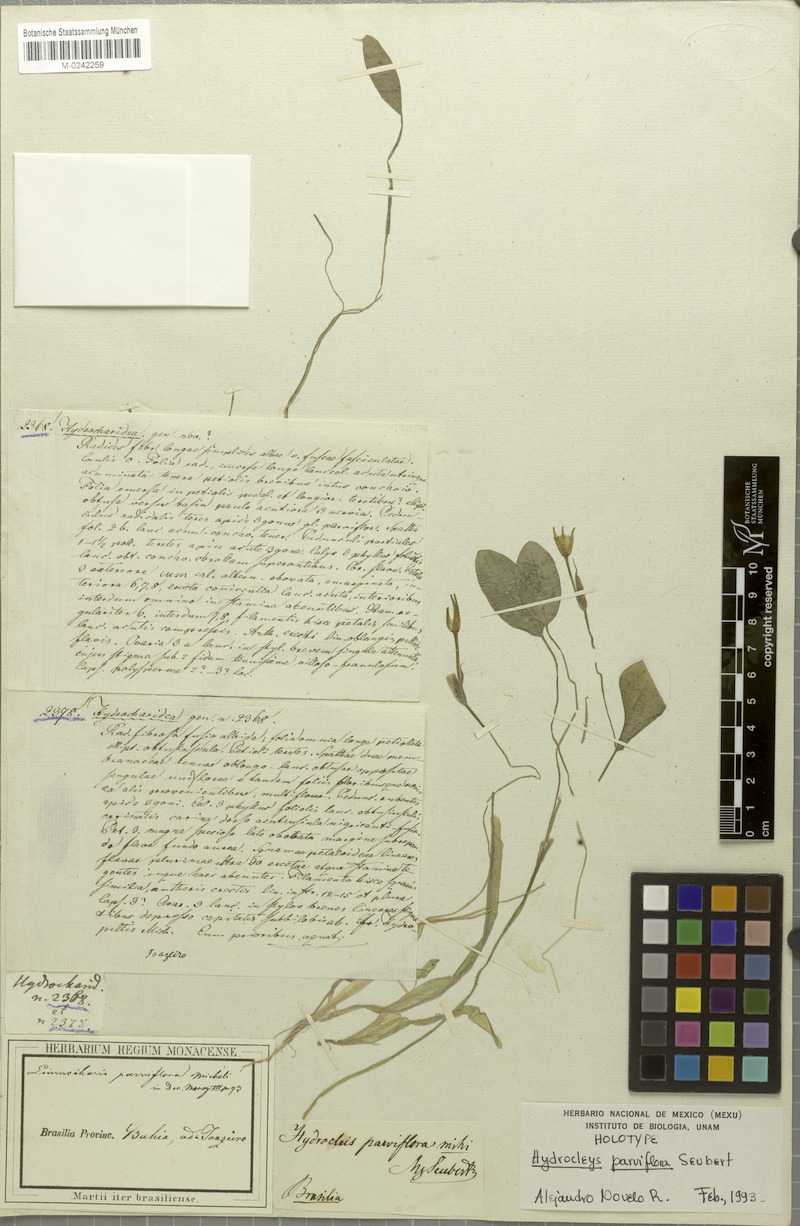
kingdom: Plantae
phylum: Tracheophyta
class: Liliopsida
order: Alismatales
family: Alismataceae
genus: Hydrocleys
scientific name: Hydrocleys parviflora
